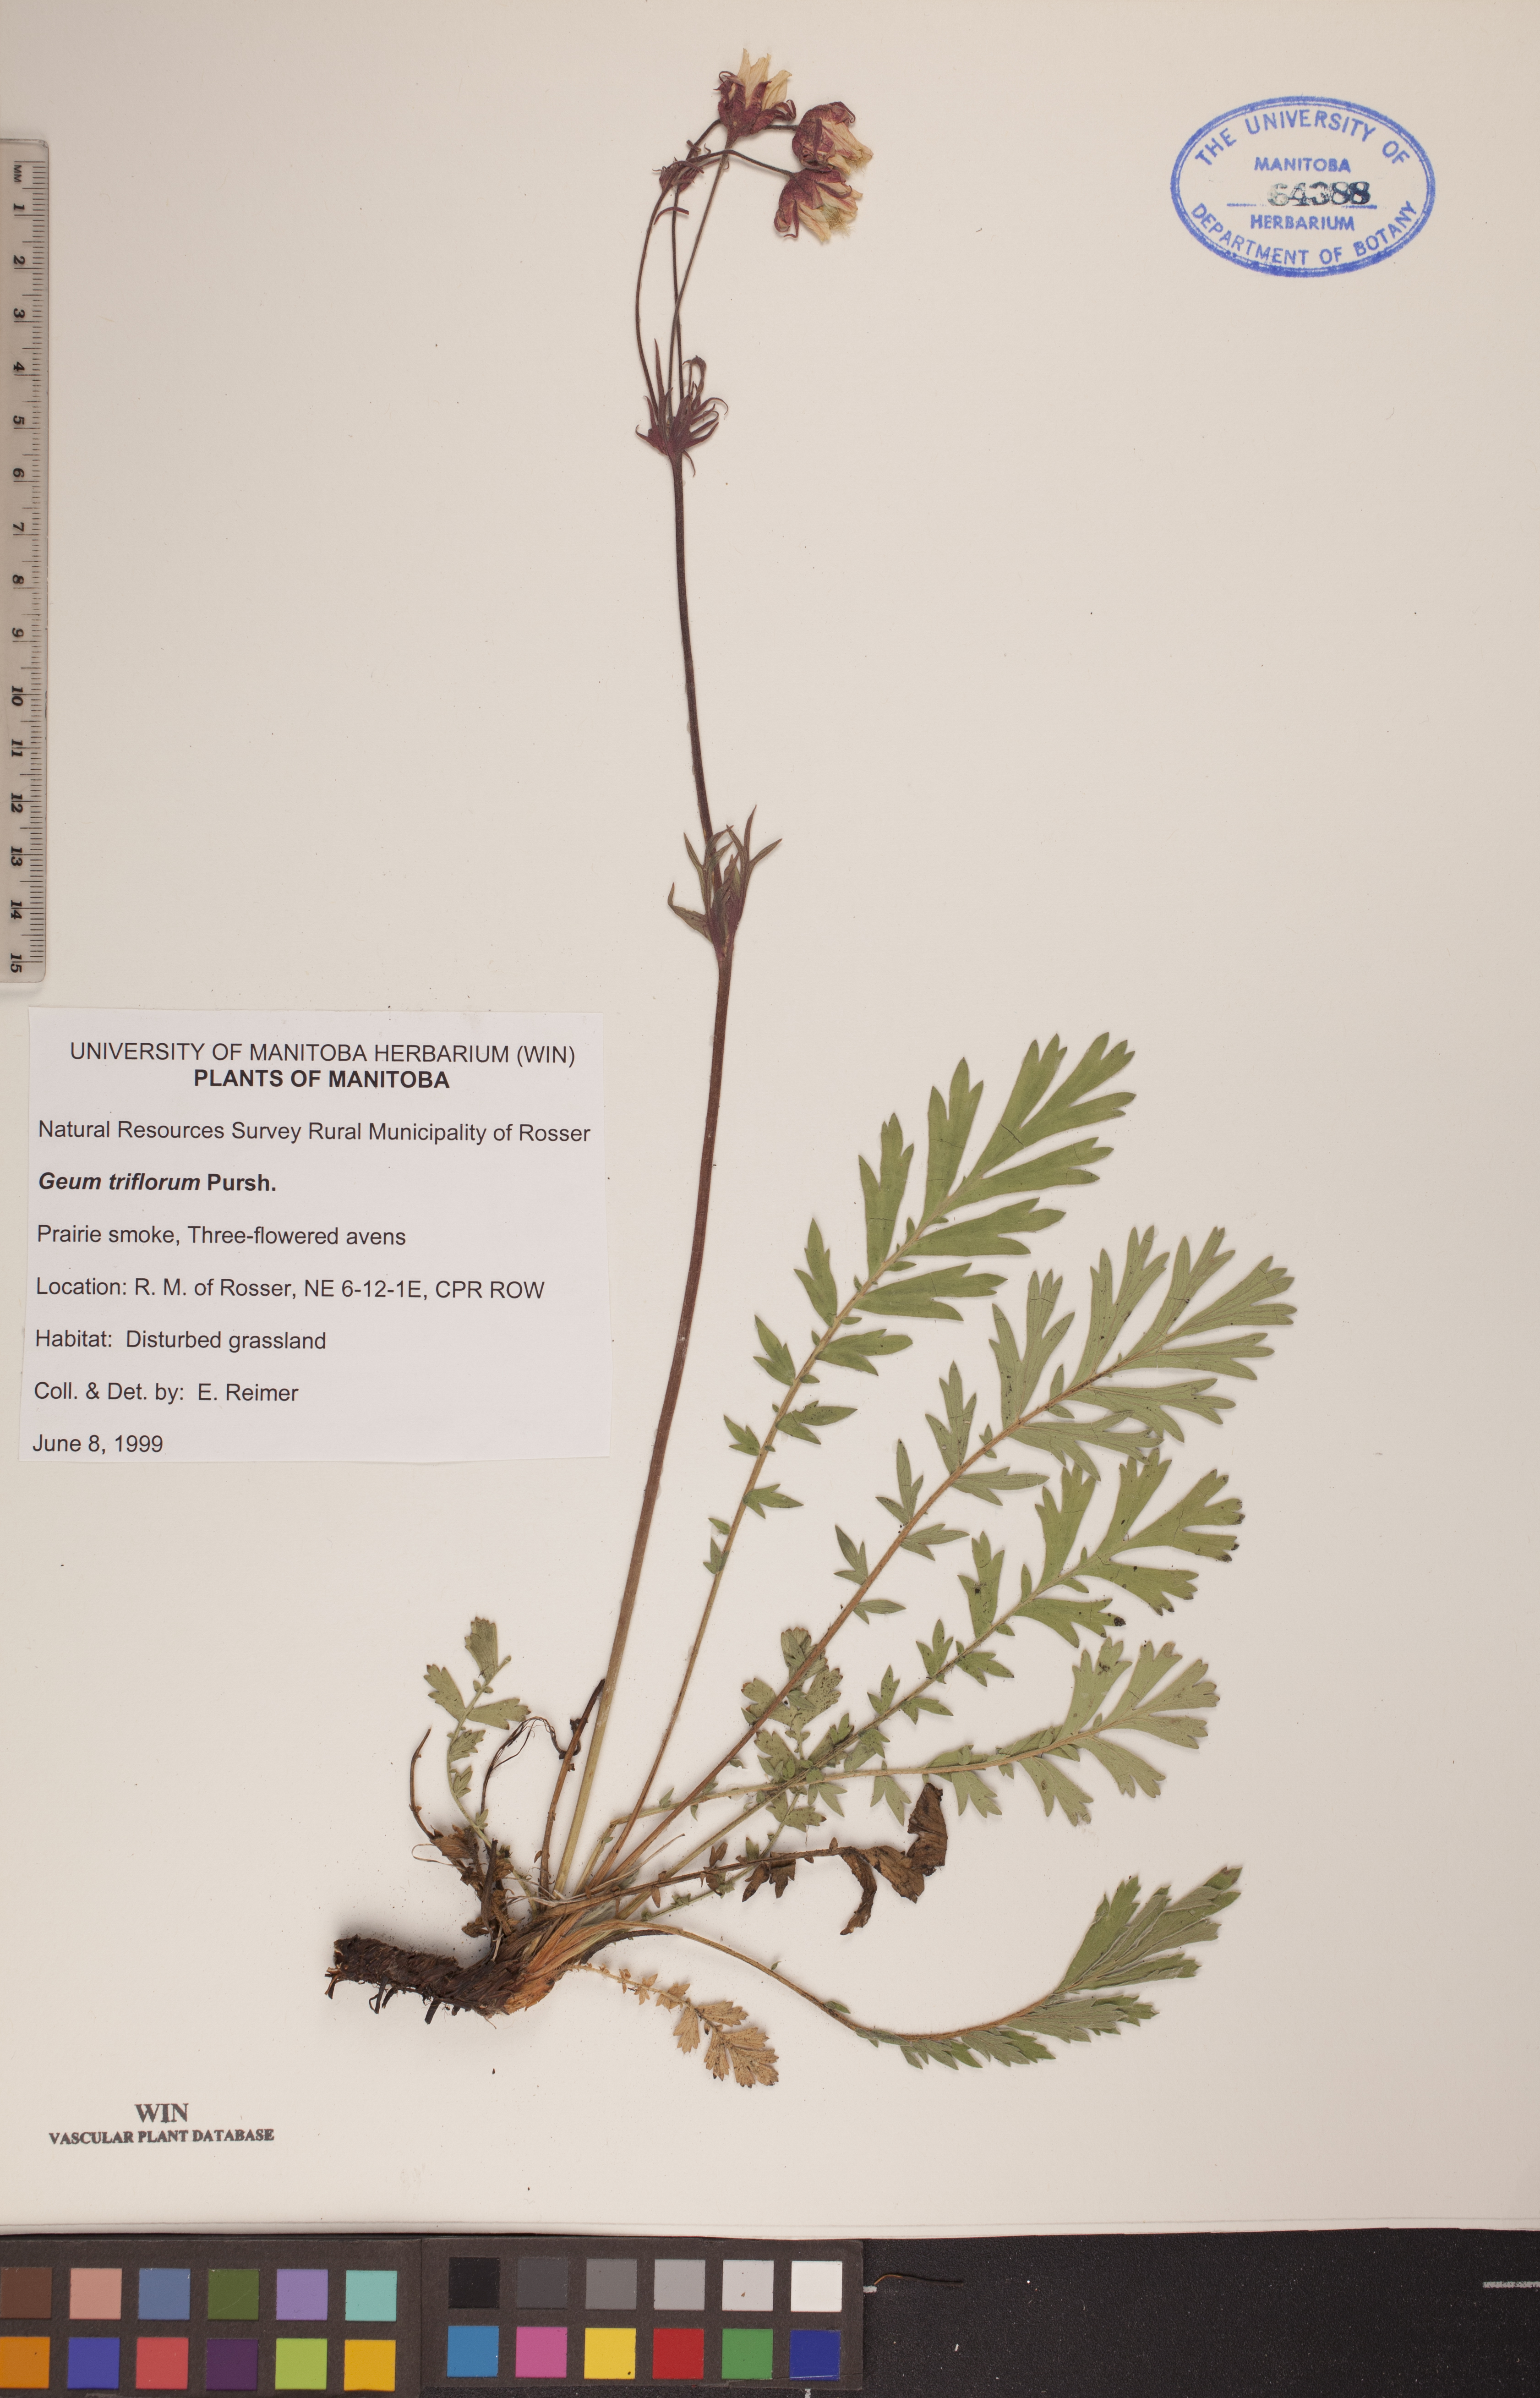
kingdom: Plantae
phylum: Tracheophyta
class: Magnoliopsida
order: Rosales
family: Rosaceae
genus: Geum
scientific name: Geum triflorum
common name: Old man's whiskers
